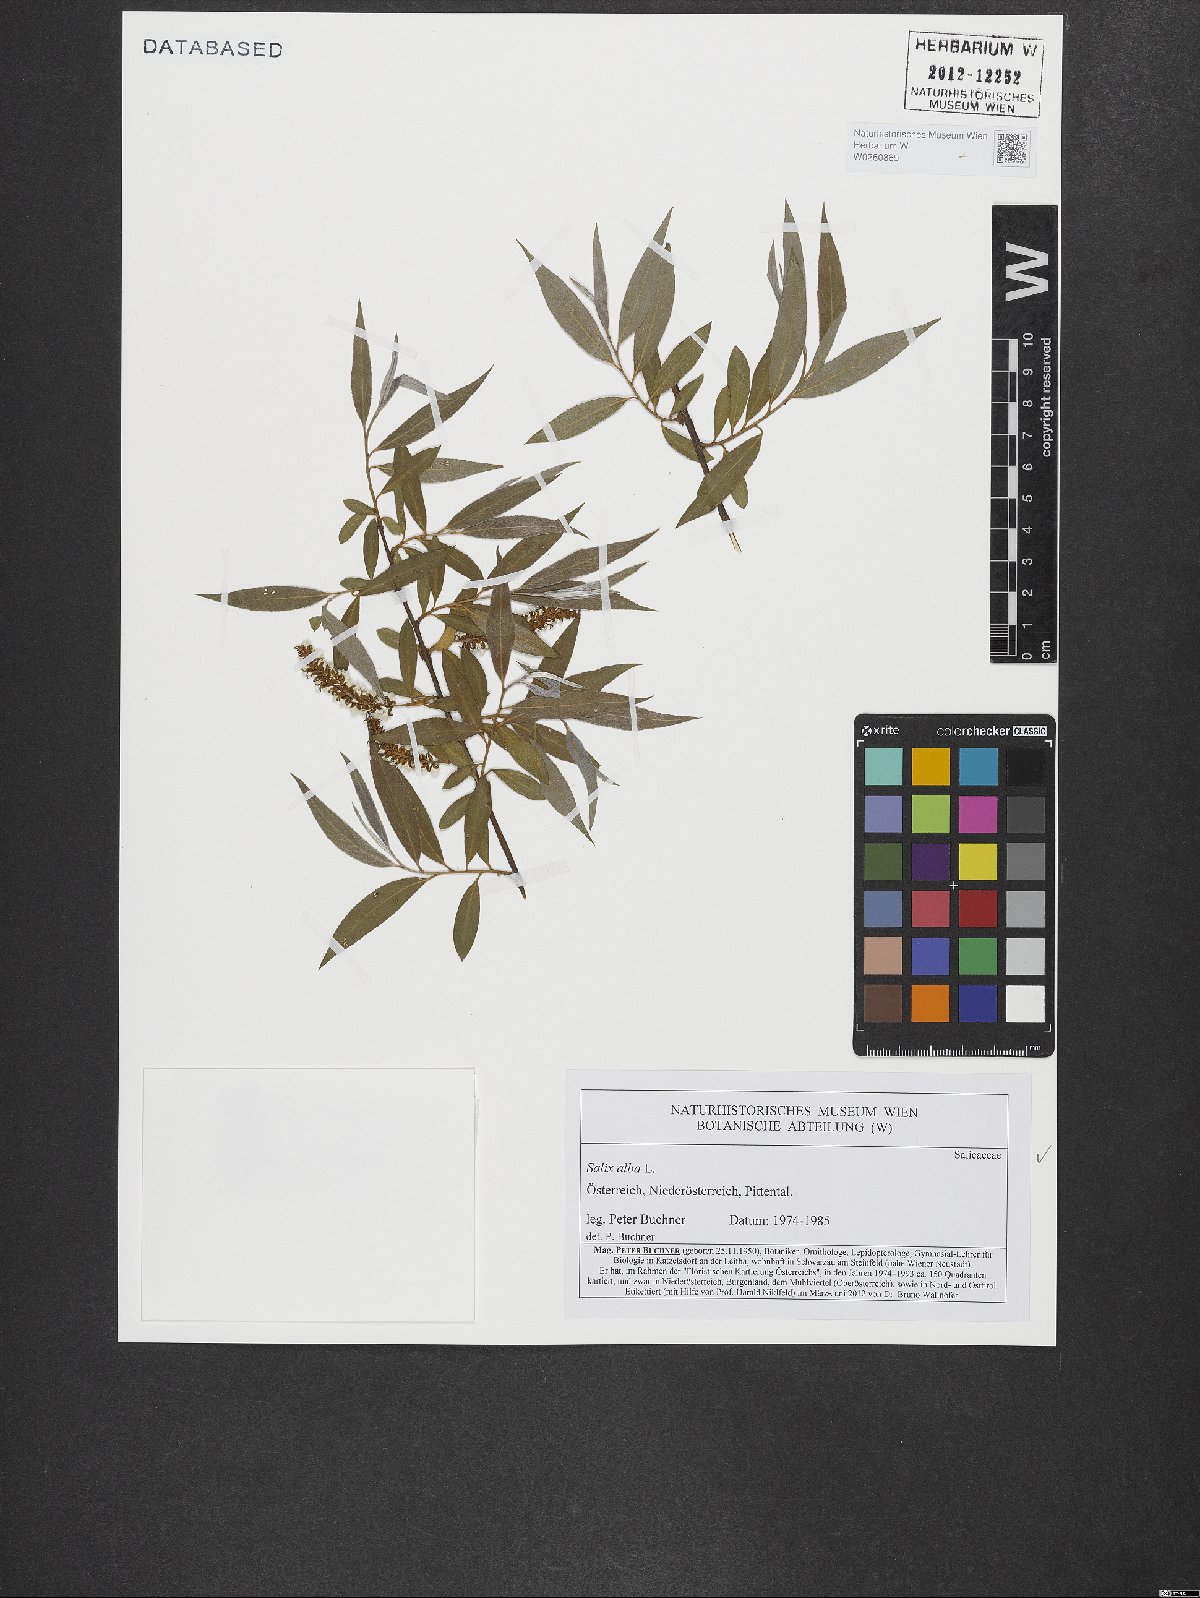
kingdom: Plantae
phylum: Tracheophyta
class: Magnoliopsida
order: Malpighiales
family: Salicaceae
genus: Salix
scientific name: Salix alba
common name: White willow
